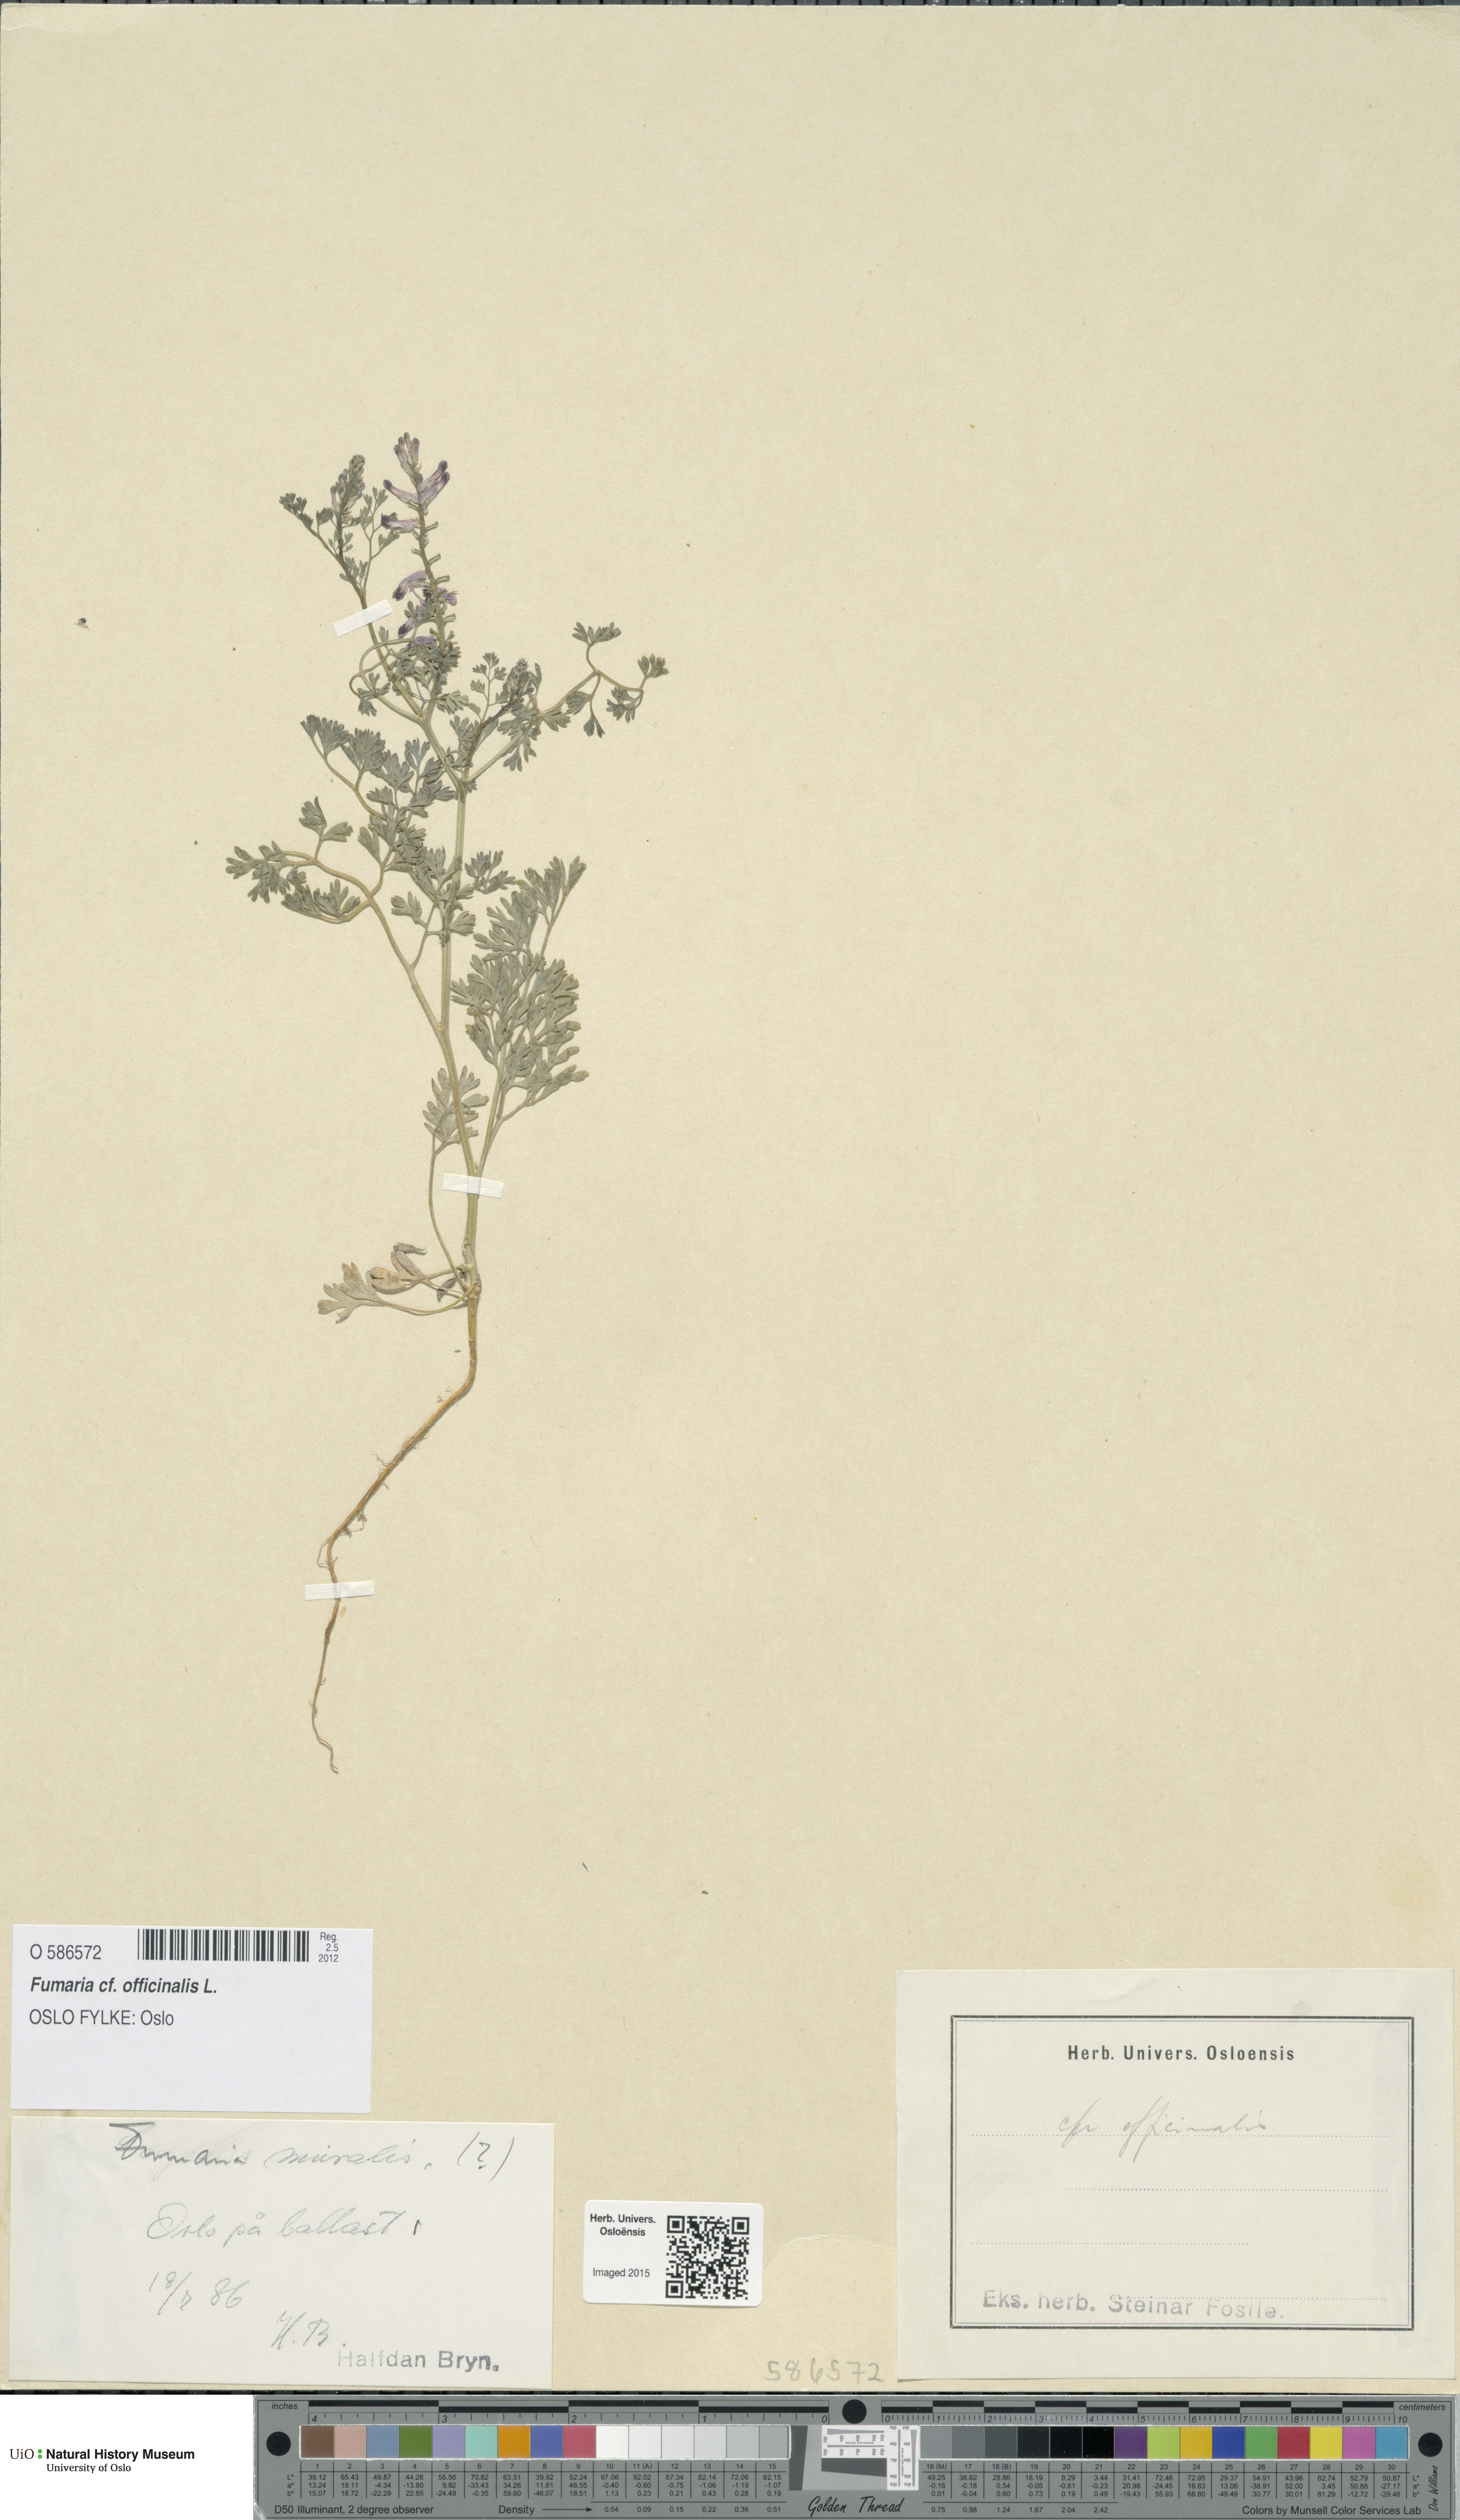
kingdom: Plantae
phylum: Tracheophyta
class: Magnoliopsida
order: Ranunculales
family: Papaveraceae
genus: Fumaria
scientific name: Fumaria officinalis
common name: Common fumitory
